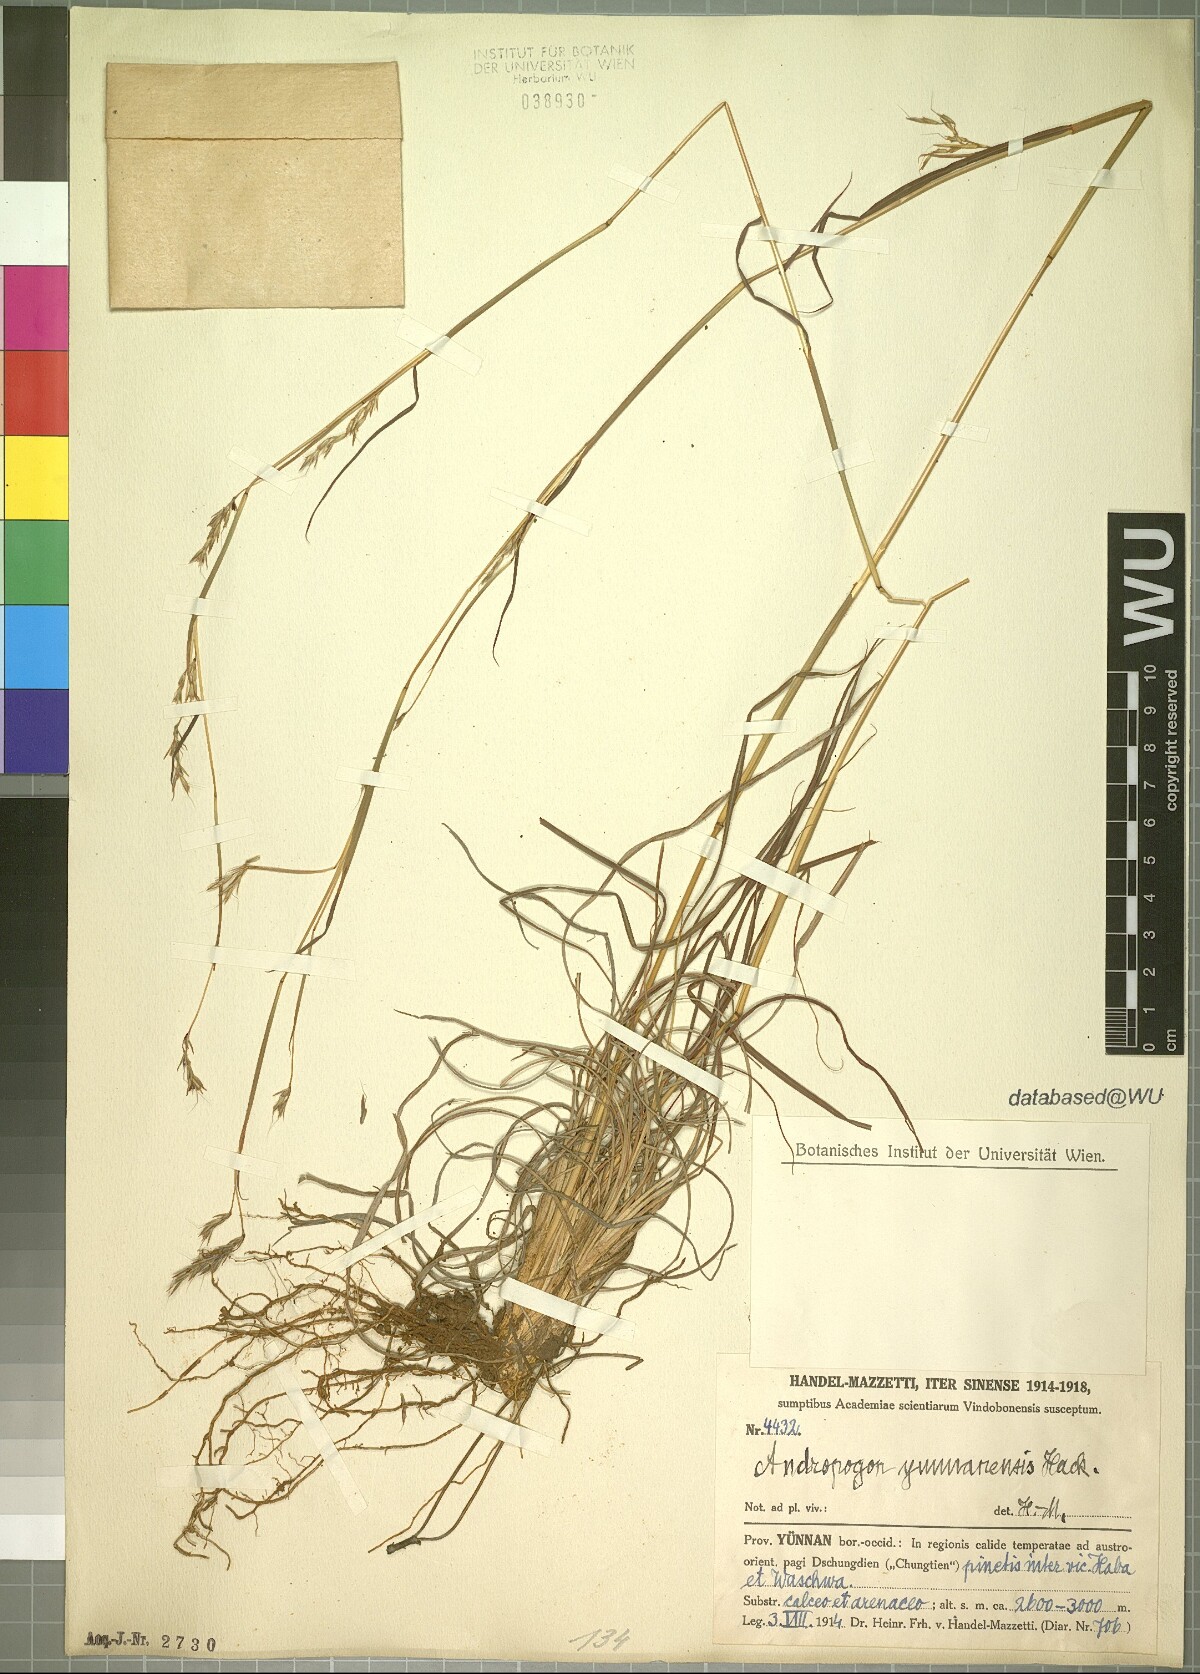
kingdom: Plantae
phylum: Tracheophyta
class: Liliopsida
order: Poales
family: Poaceae
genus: Andropogon
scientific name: Andropogon munroi
